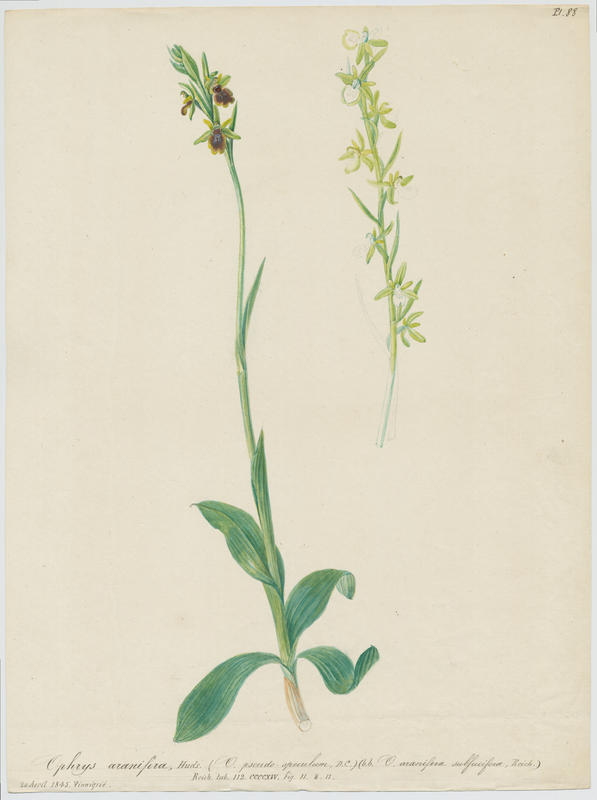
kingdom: Plantae
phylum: Tracheophyta
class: Liliopsida
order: Asparagales
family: Orchidaceae
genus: Ophrys
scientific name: Ophrys sphegodes
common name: Early spider-orchid
